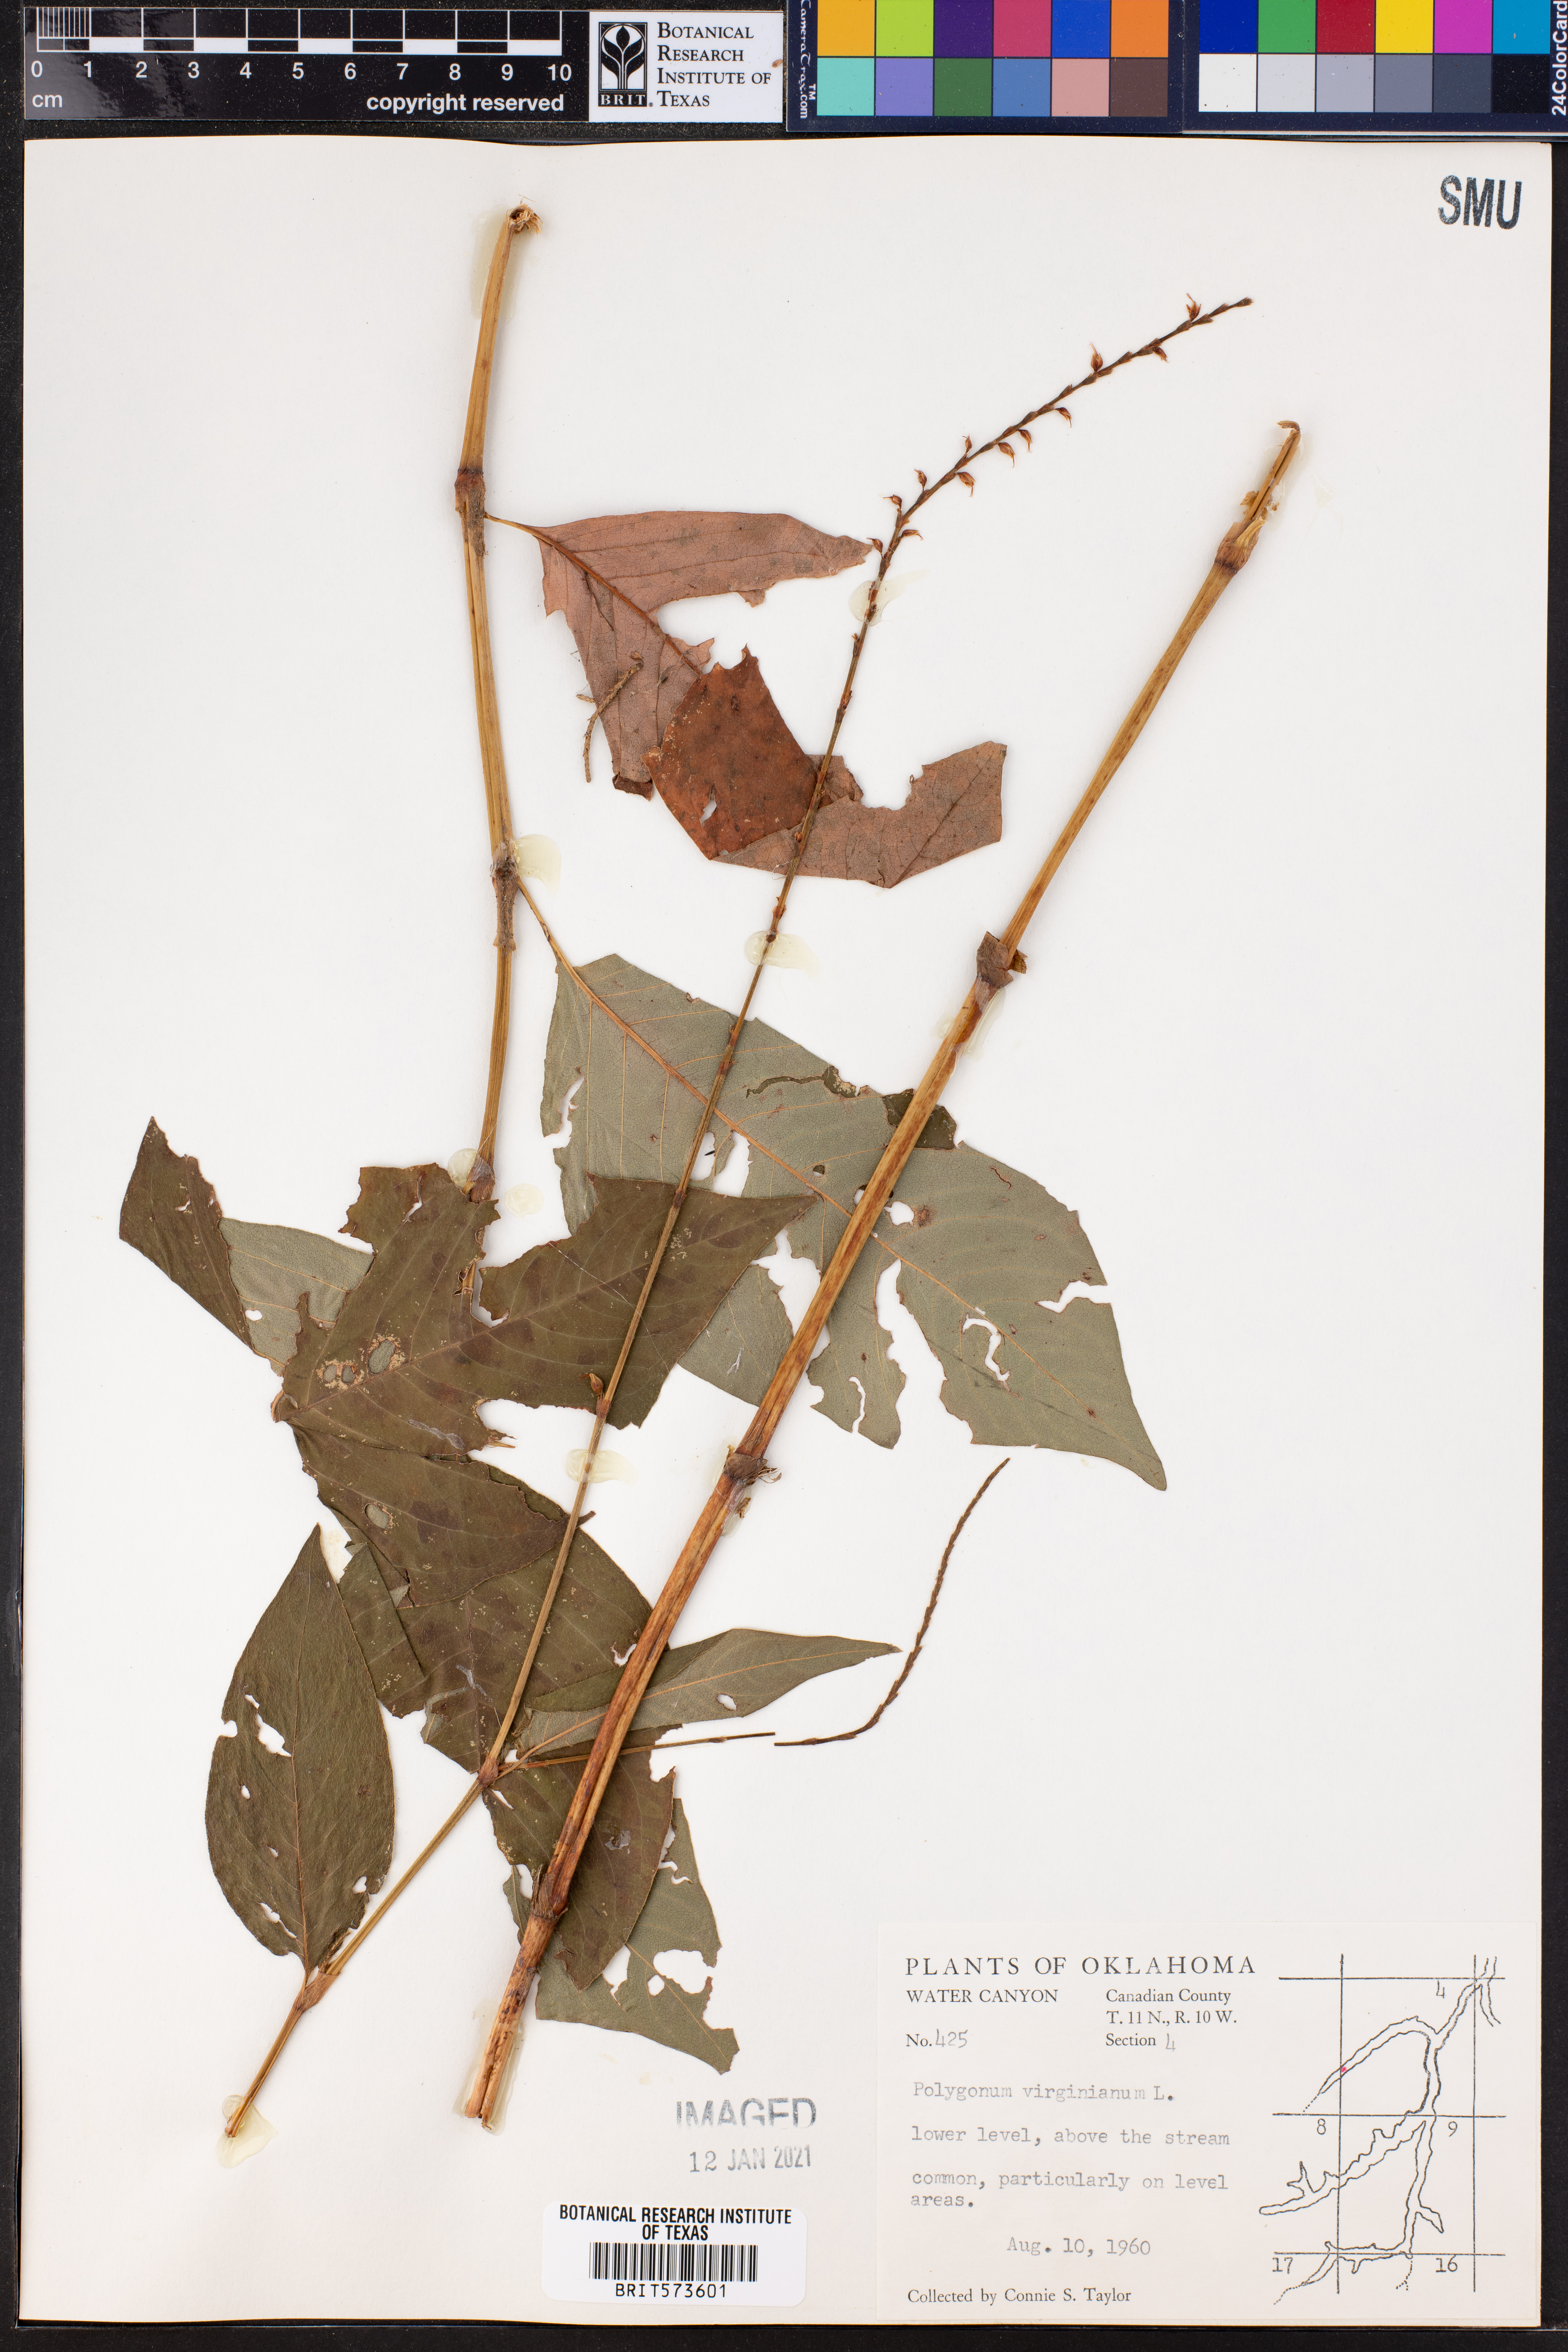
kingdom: Plantae
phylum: Tracheophyta
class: Magnoliopsida
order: Caryophyllales
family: Polygonaceae
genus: Persicaria
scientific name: Persicaria virginiana
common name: Jumpseed
